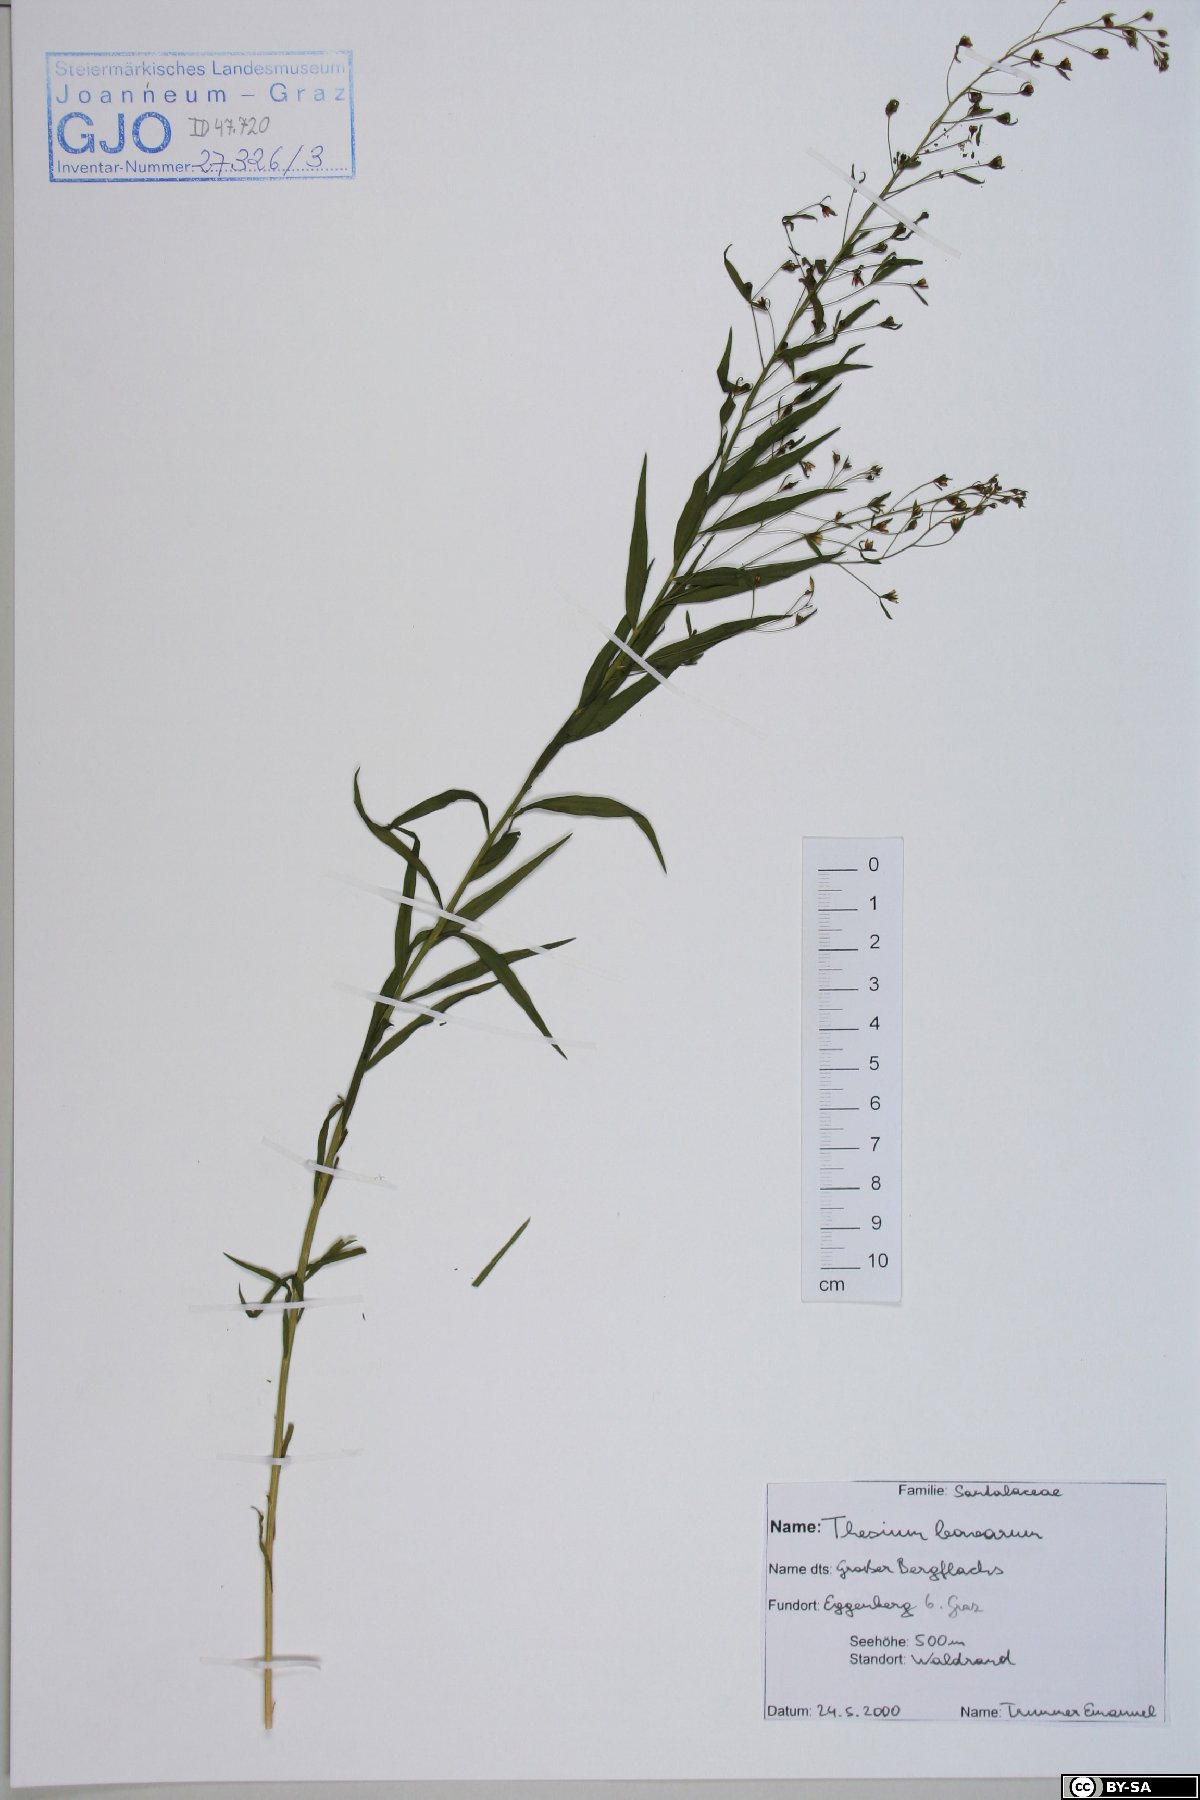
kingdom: Plantae
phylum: Tracheophyta
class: Magnoliopsida
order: Santalales
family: Thesiaceae
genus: Thesium
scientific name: Thesium bavarum
